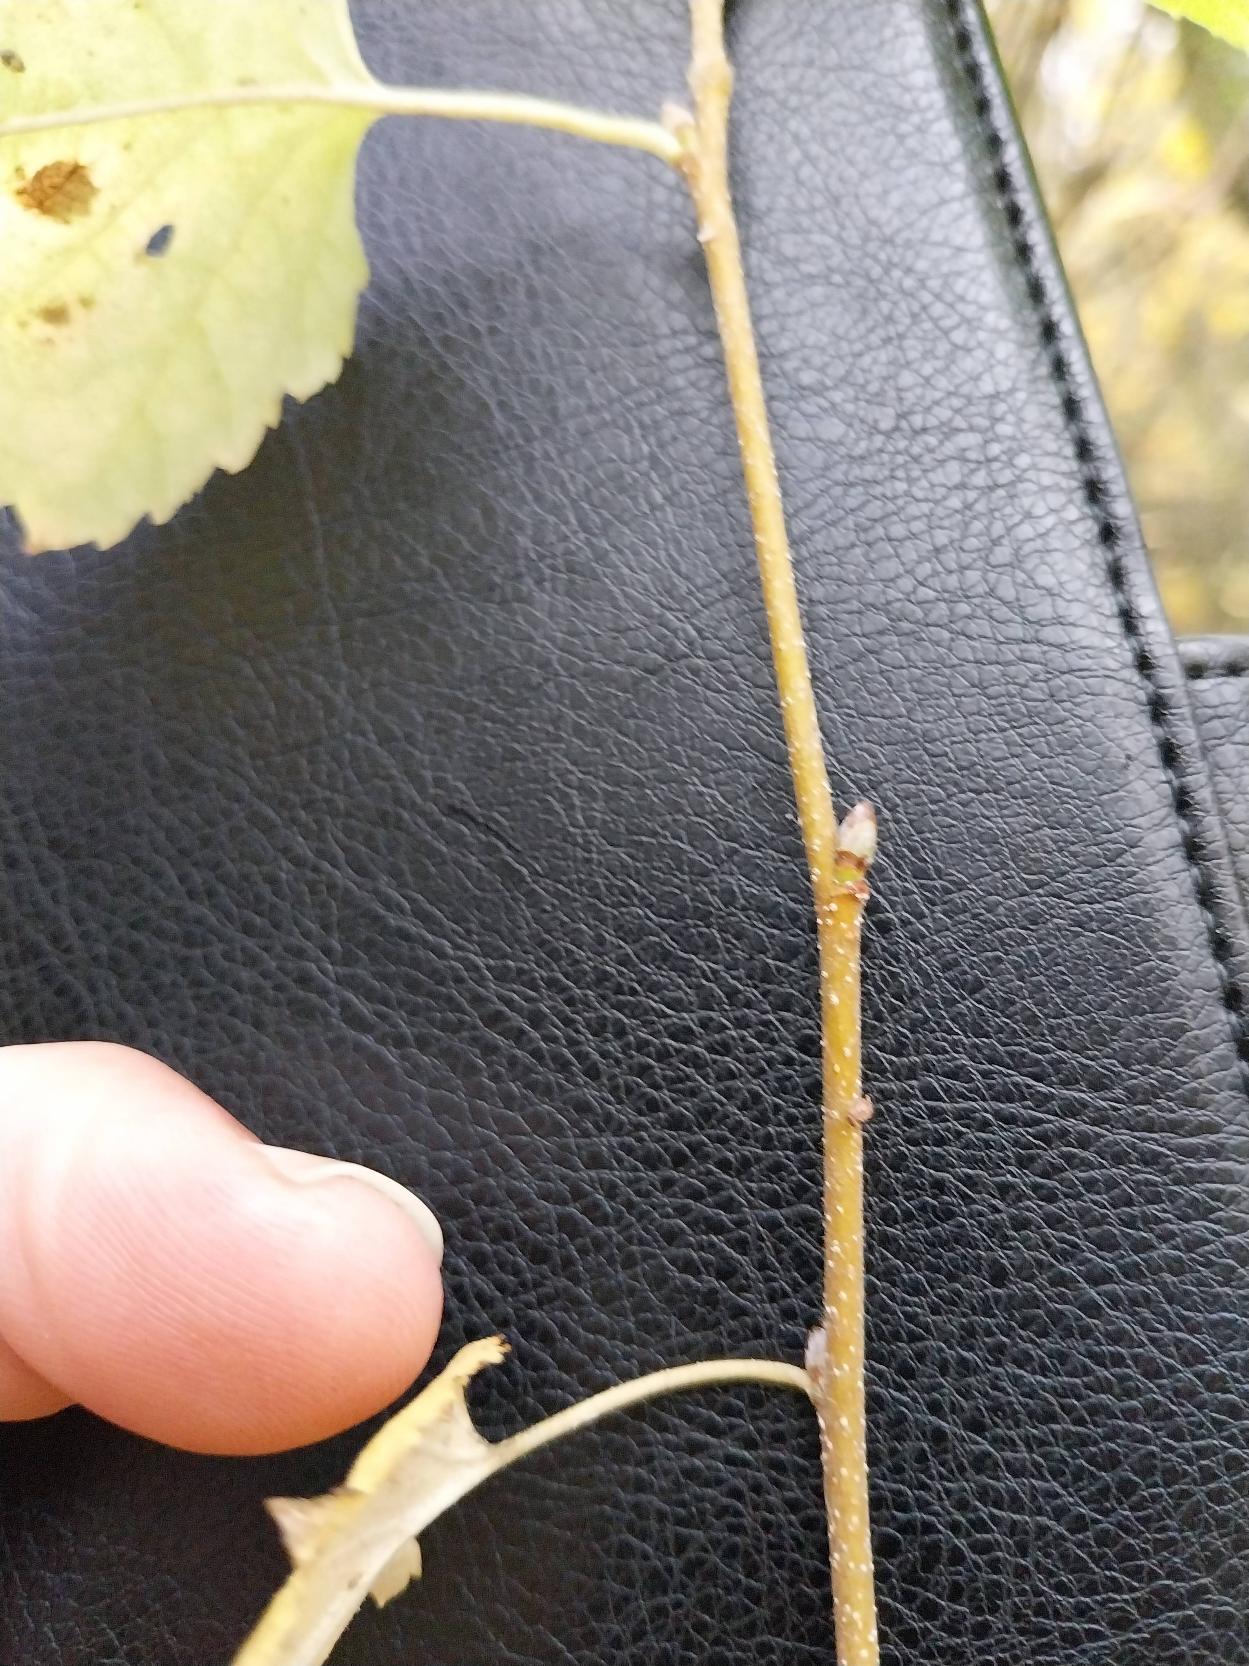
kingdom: Plantae
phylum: Tracheophyta
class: Magnoliopsida
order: Fagales
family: Betulaceae
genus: Betula
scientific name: Betula pendula
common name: Vorte-birk
